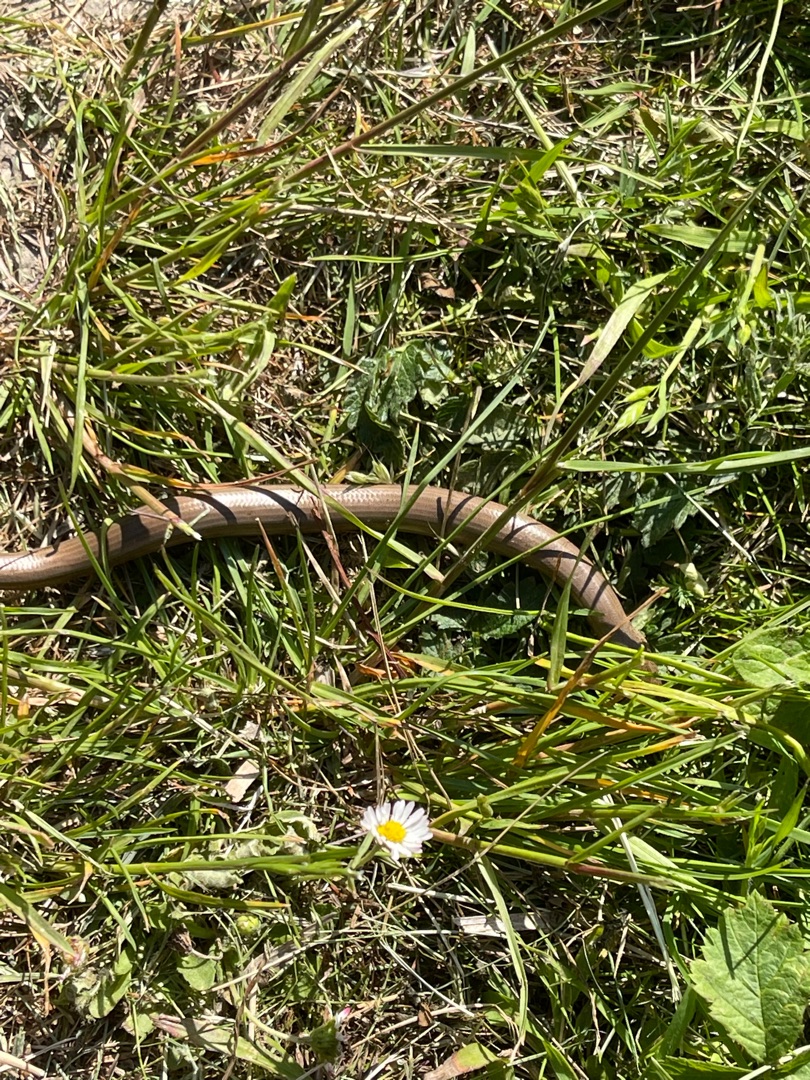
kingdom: Animalia
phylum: Chordata
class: Squamata
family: Anguidae
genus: Anguis
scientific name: Anguis fragilis
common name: Stålorm
